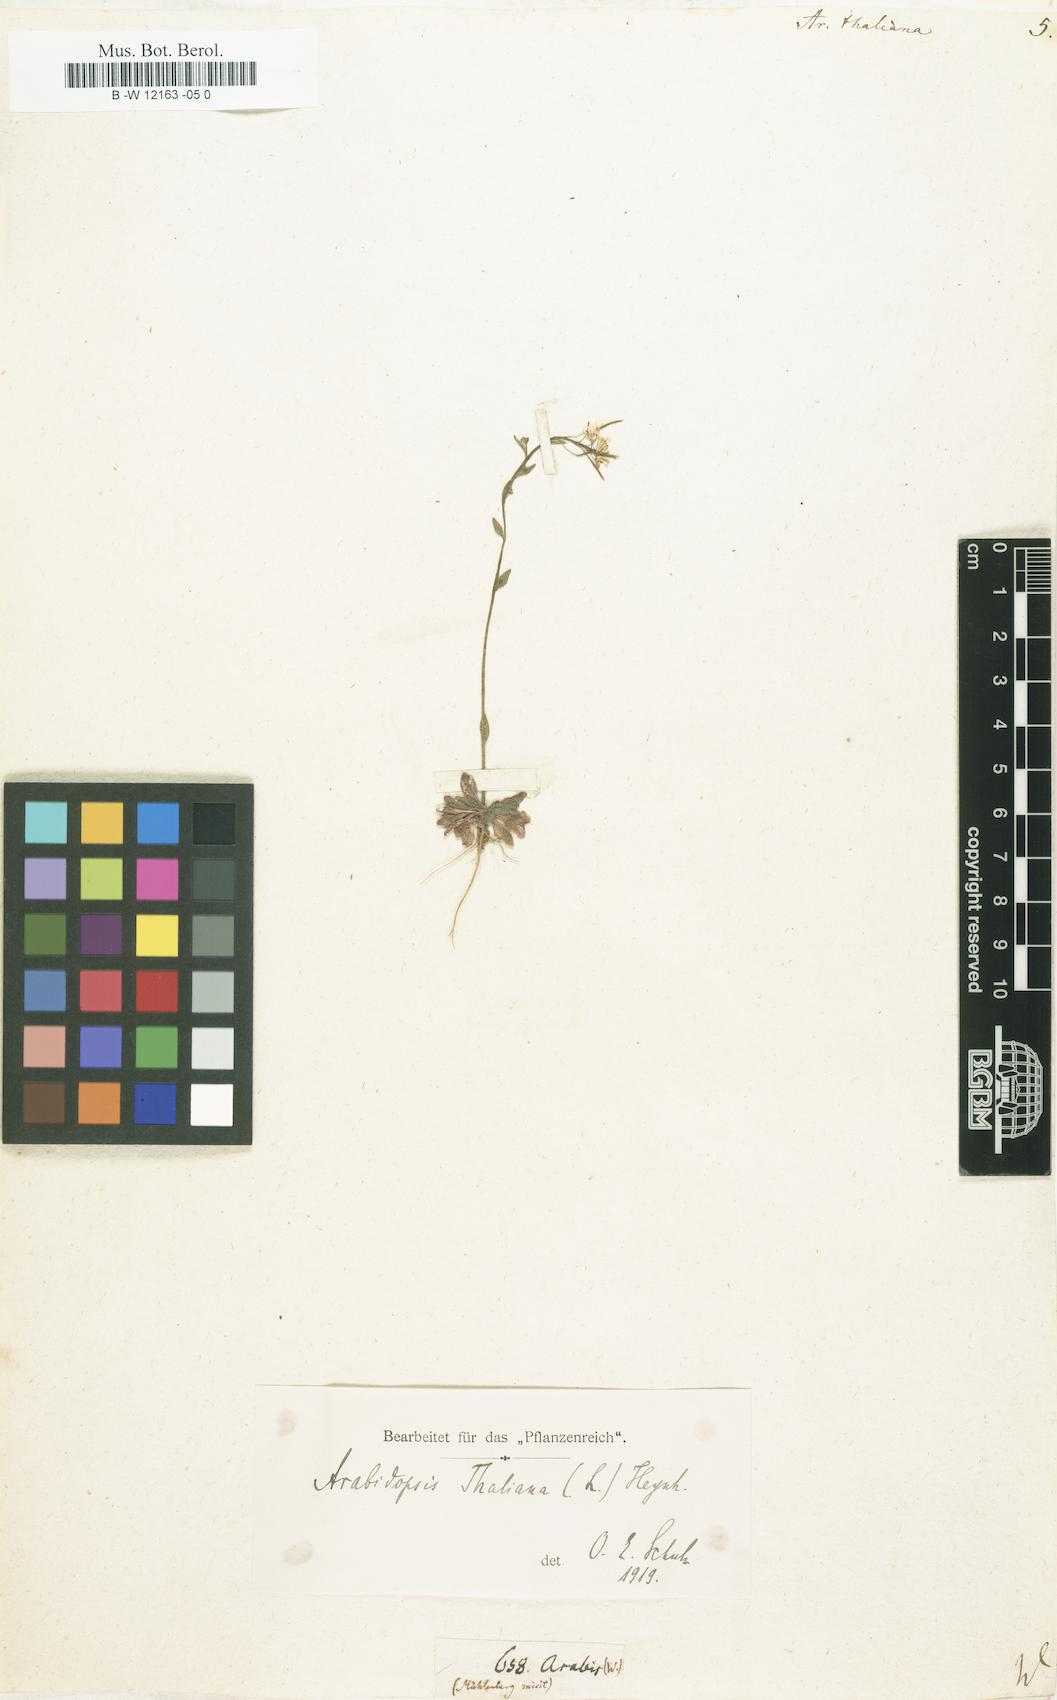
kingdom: Plantae
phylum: Tracheophyta
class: Magnoliopsida
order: Brassicales
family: Brassicaceae
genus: Arabidopsis
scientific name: Arabidopsis
